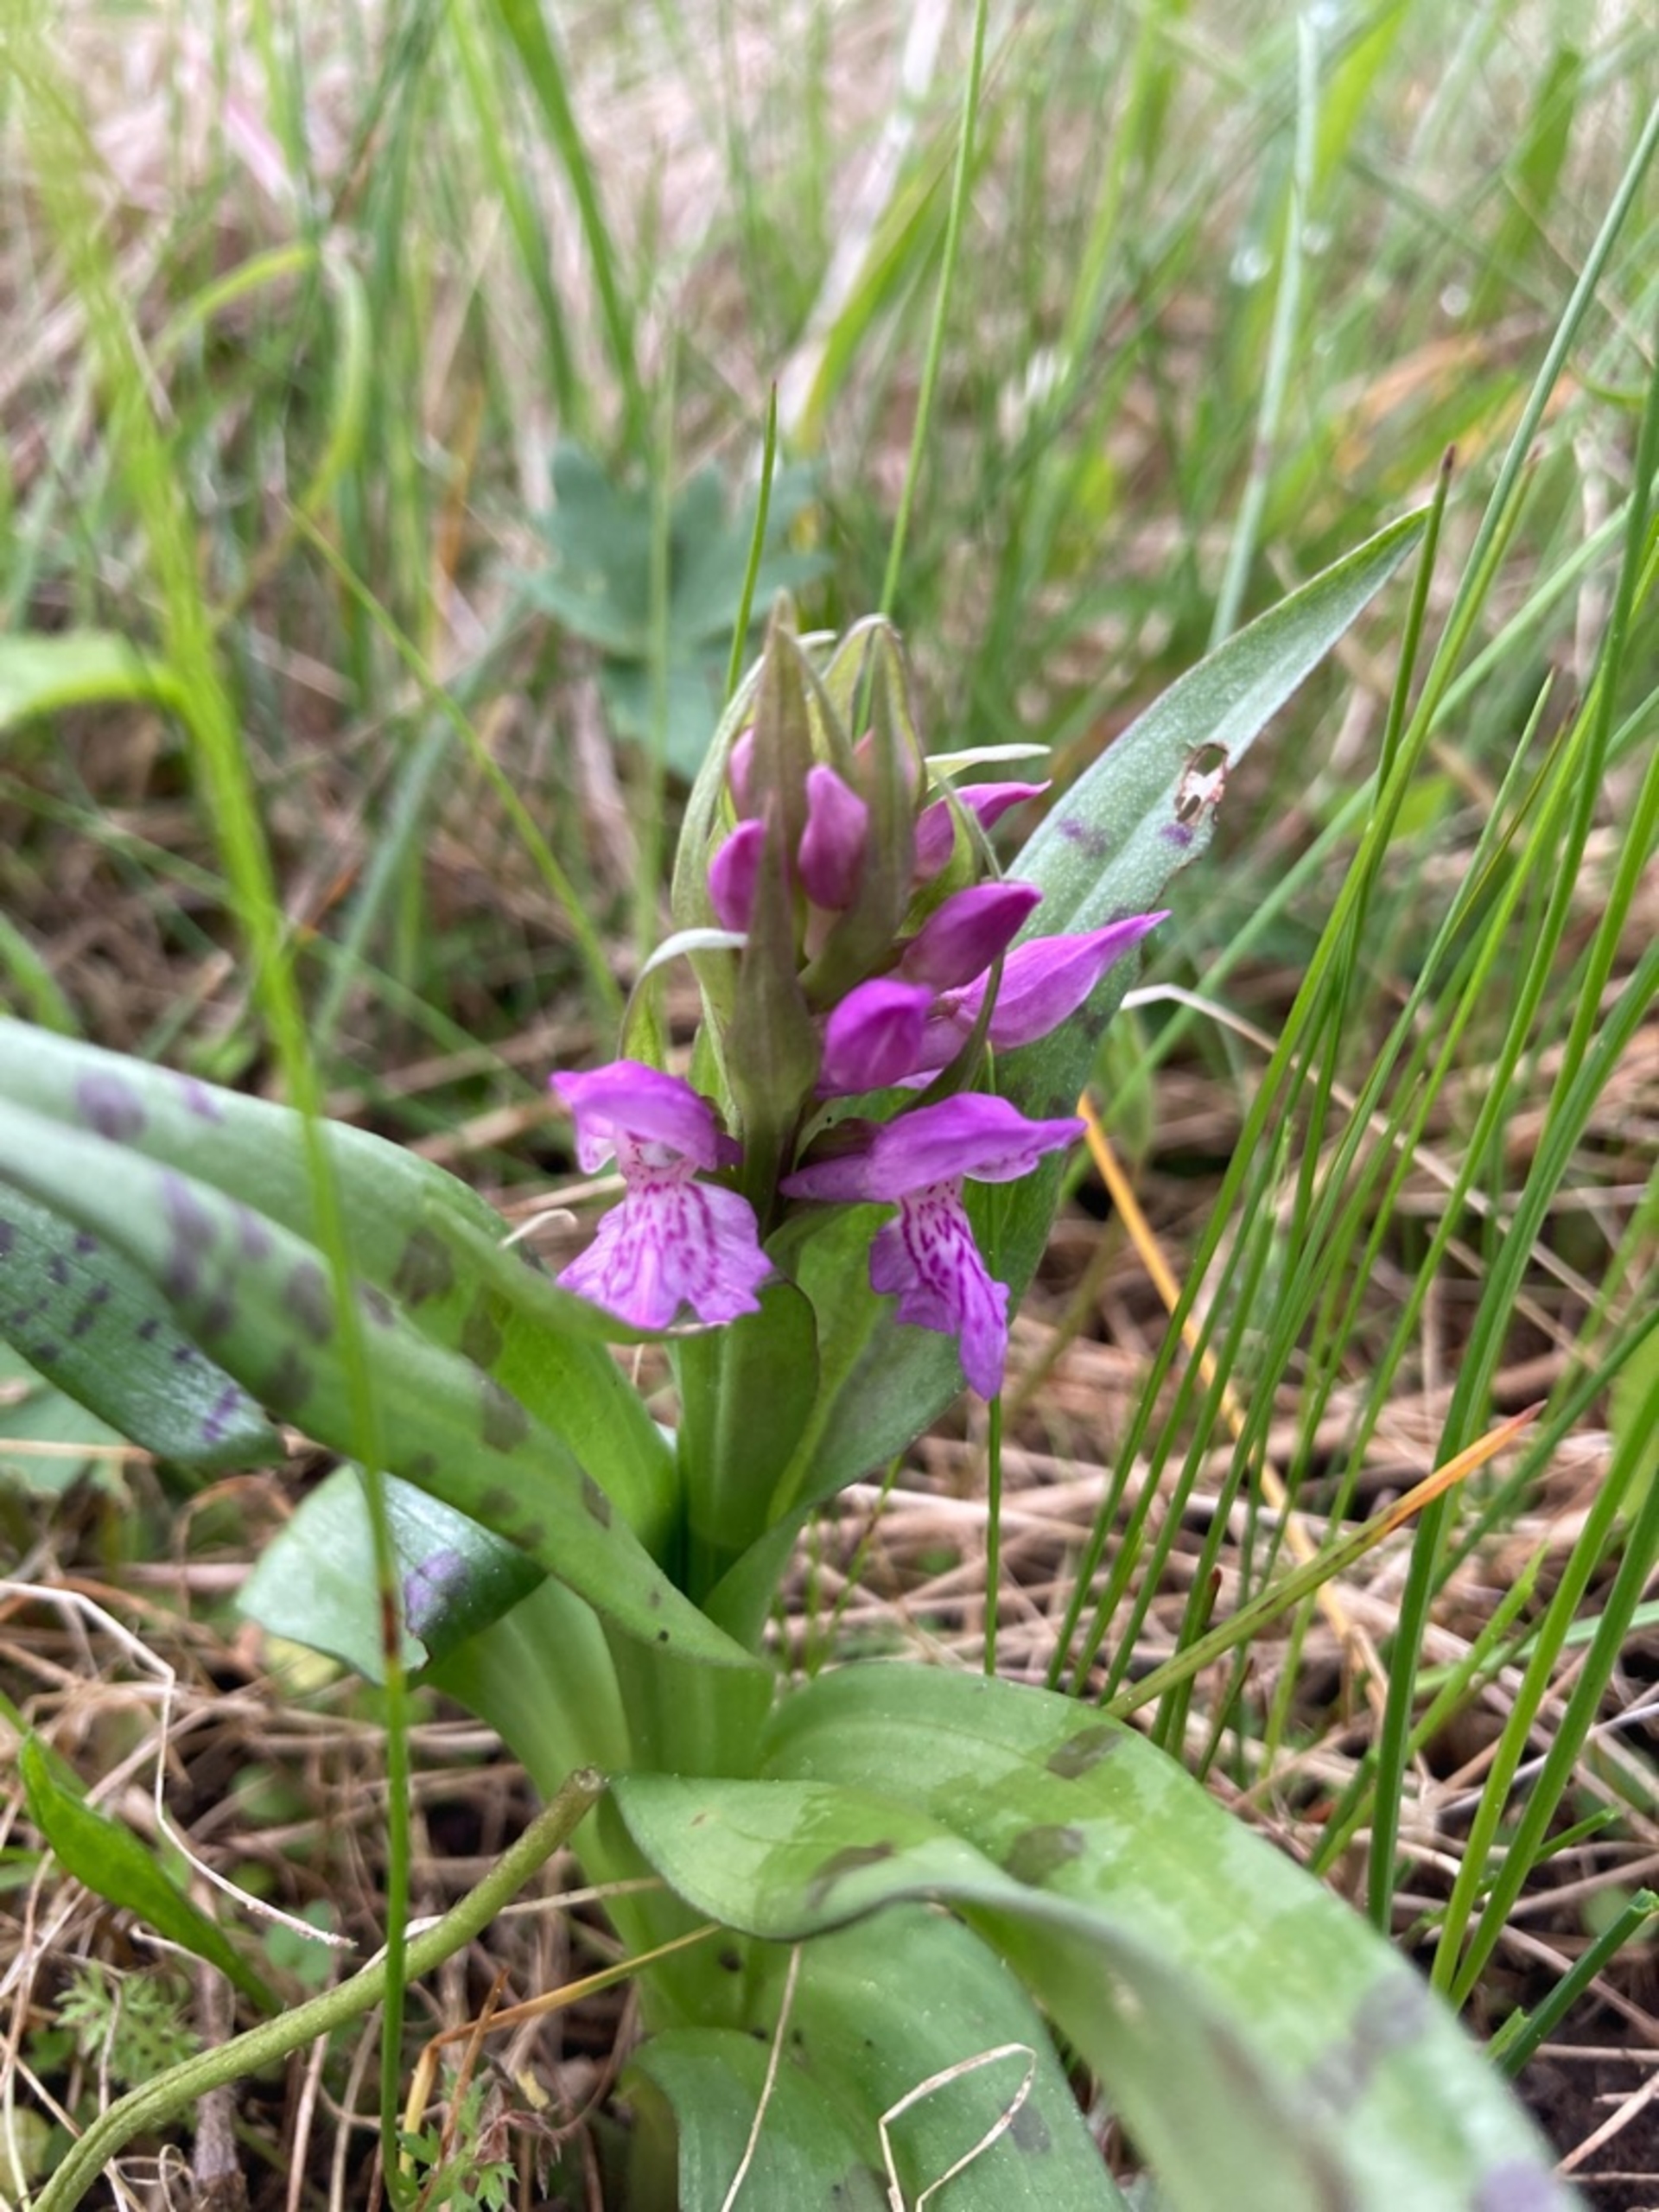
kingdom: Plantae
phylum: Tracheophyta
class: Liliopsida
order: Asparagales
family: Orchidaceae
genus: Dactylorhiza
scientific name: Dactylorhiza majalis
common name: Maj-gøgeurt
